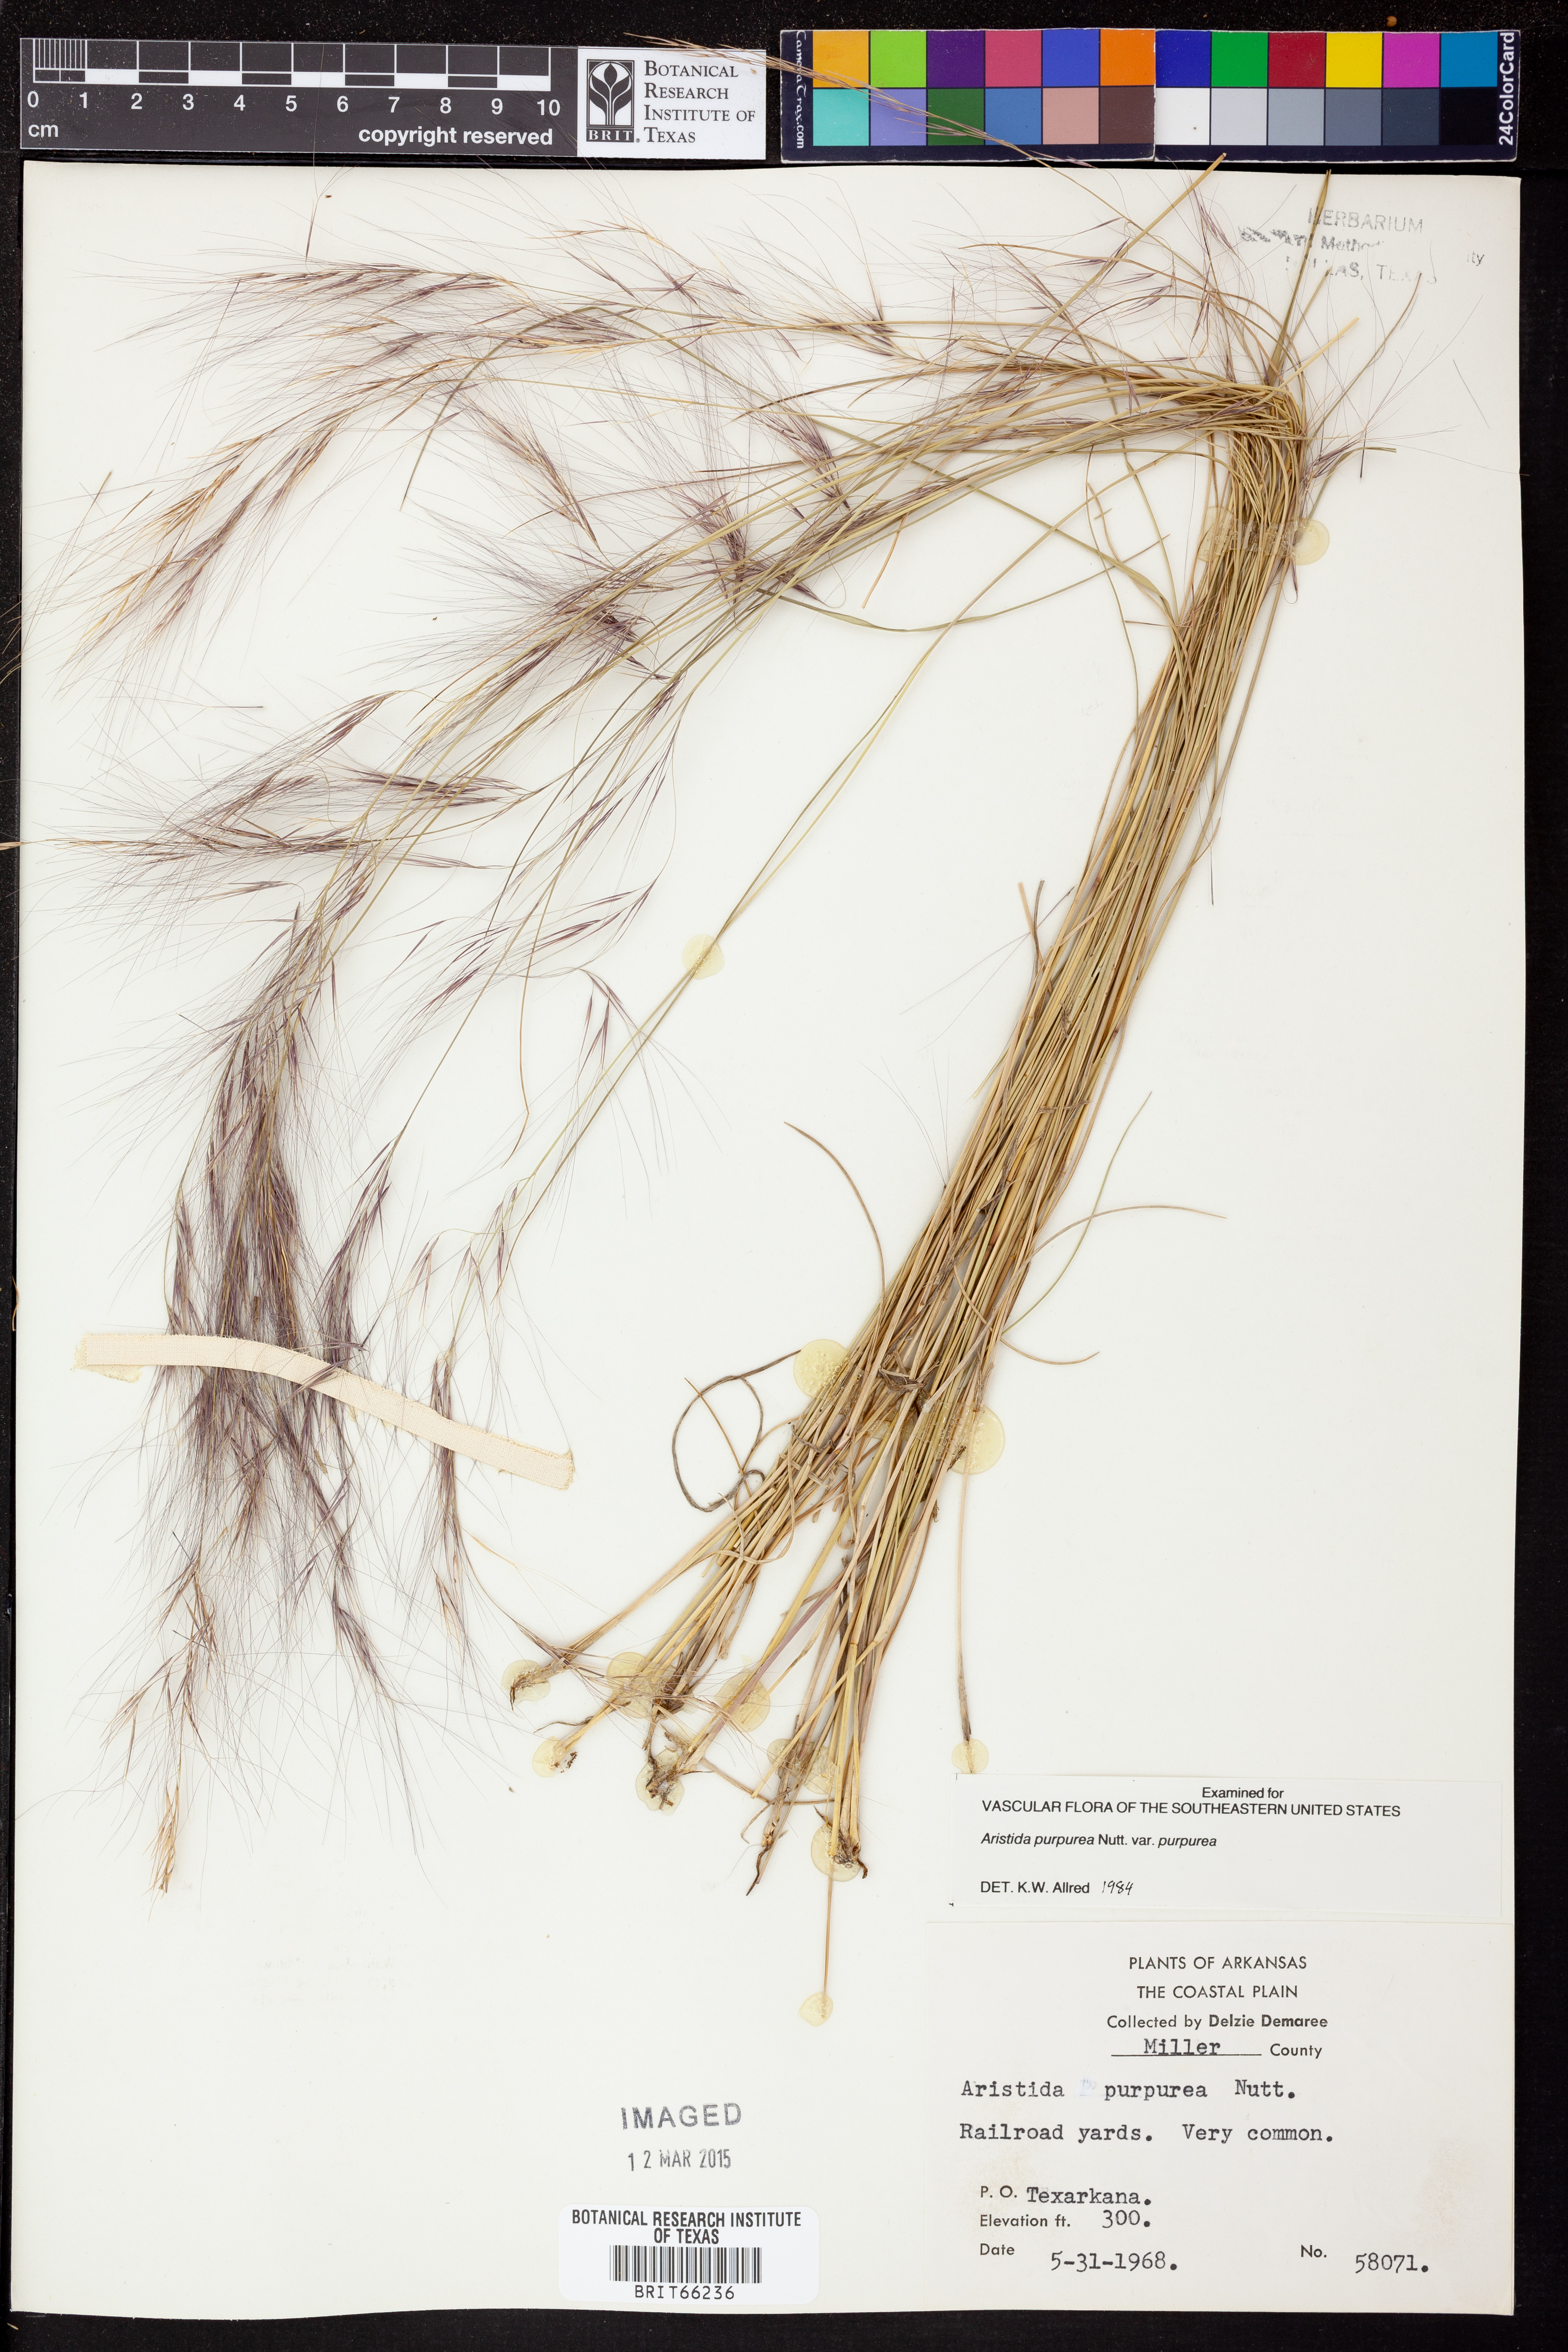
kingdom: Plantae
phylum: Tracheophyta
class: Liliopsida
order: Poales
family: Poaceae
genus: Aristida
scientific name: Aristida purpurea
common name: Purple threeawn
